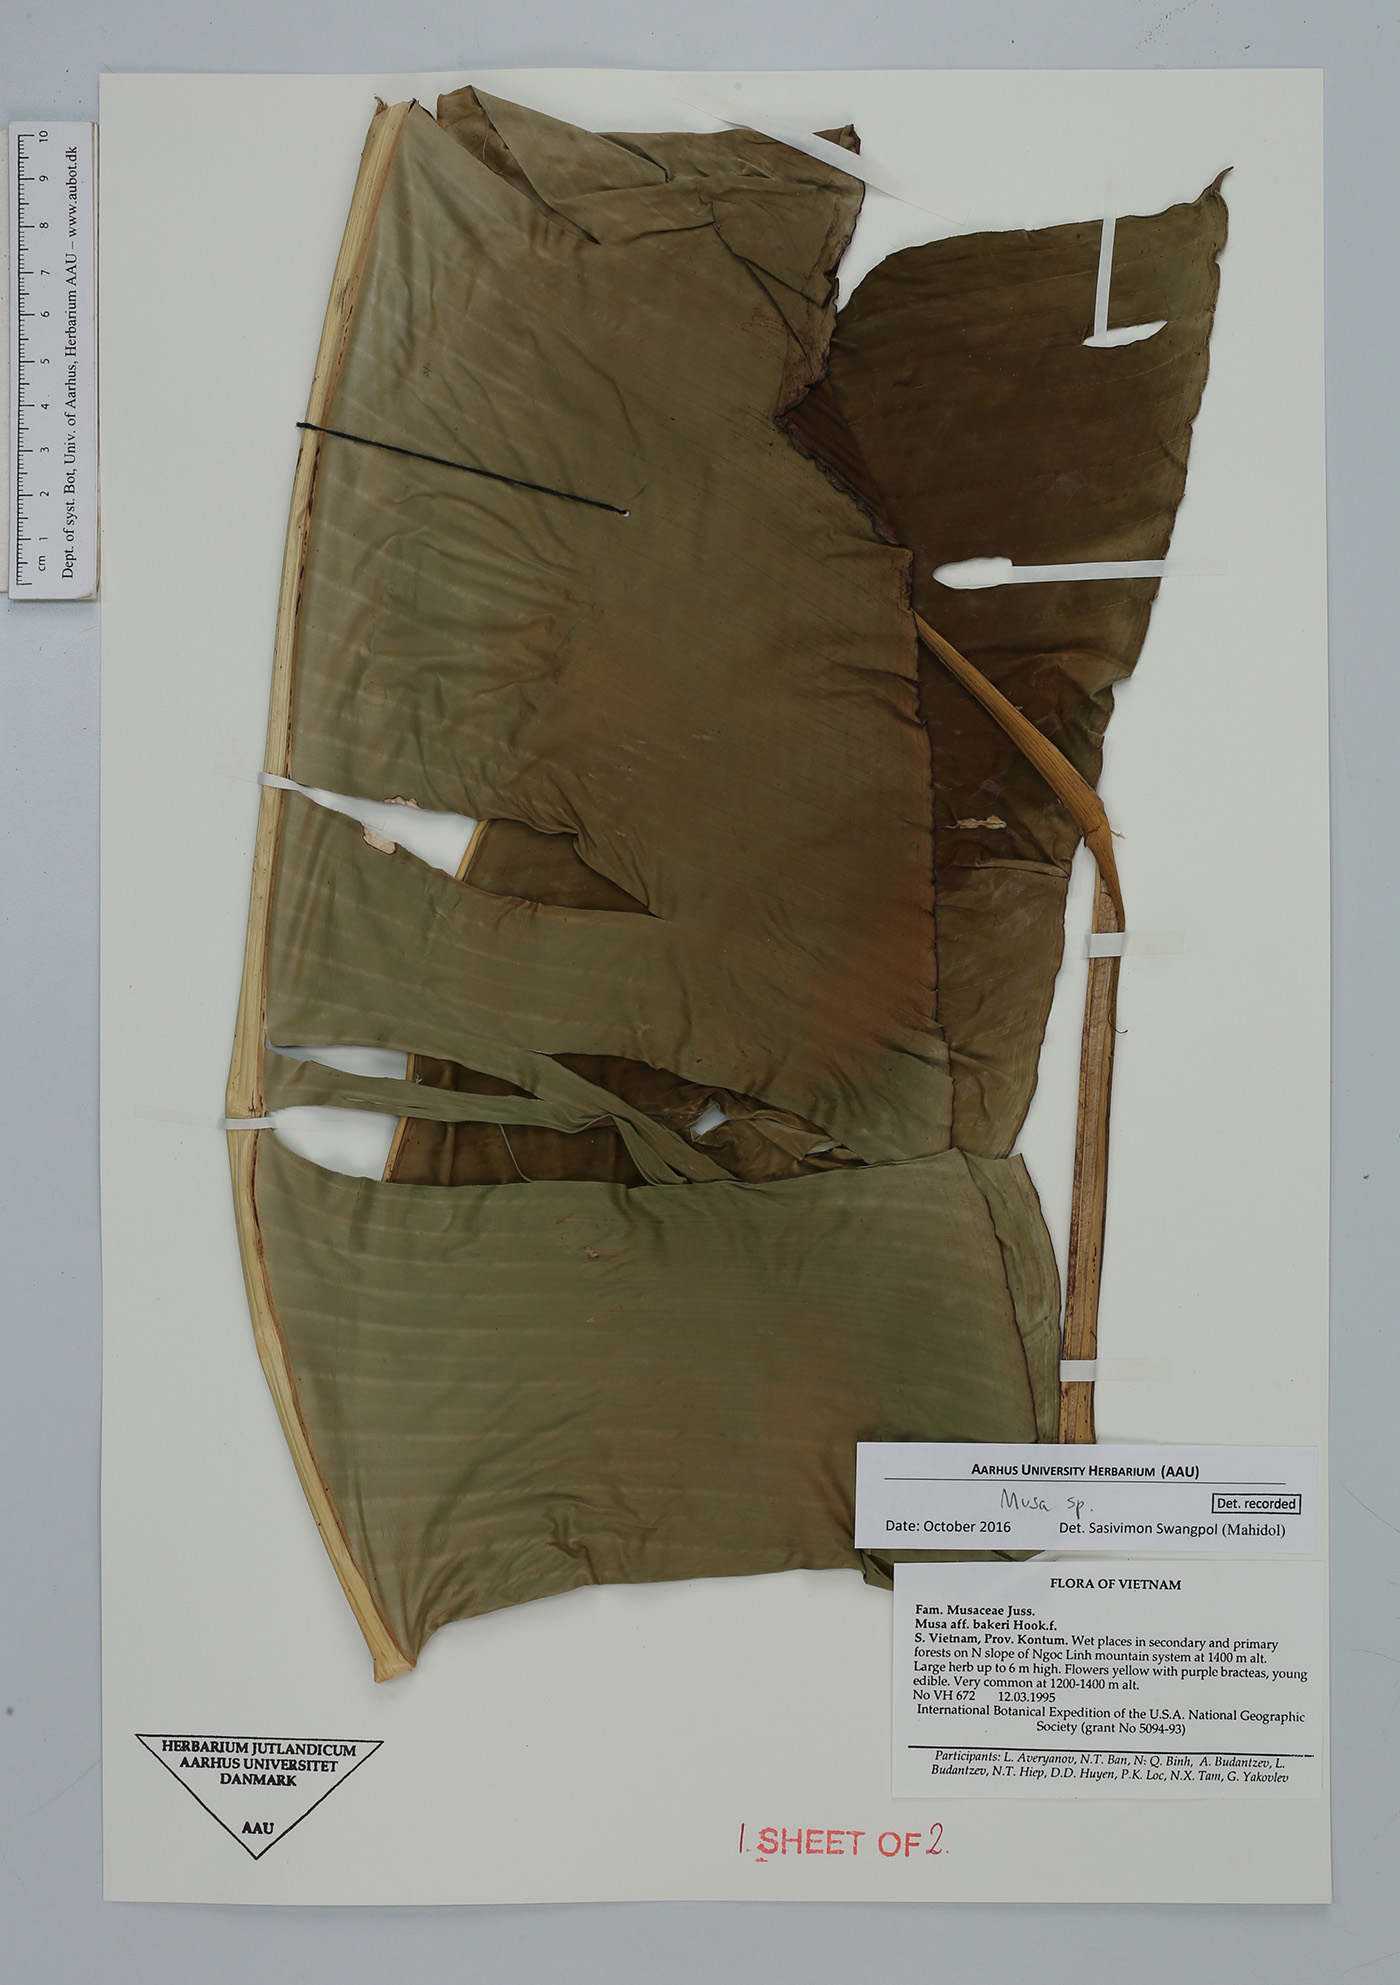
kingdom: Plantae
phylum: Tracheophyta
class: Liliopsida
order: Zingiberales
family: Musaceae
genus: Musa
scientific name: Musa
